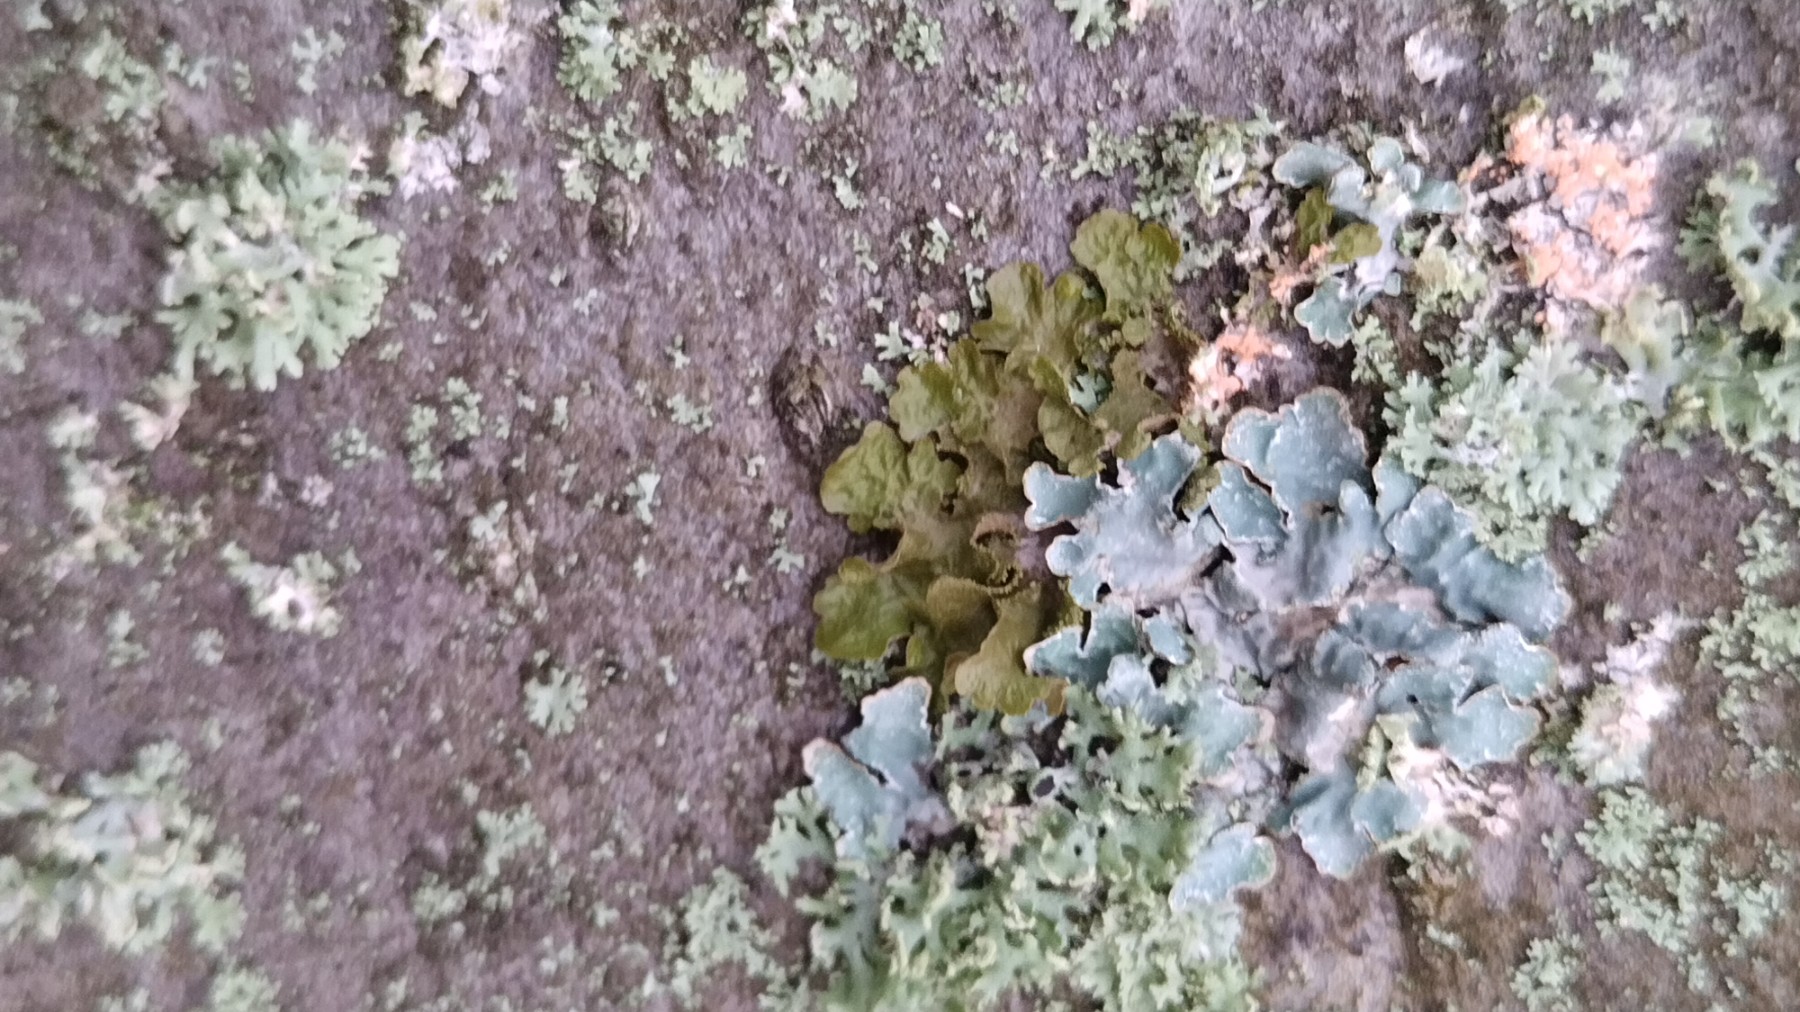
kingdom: Fungi
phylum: Ascomycota
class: Lecanoromycetes
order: Lecanorales
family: Parmeliaceae
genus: Melanelixia
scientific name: Melanelixia subaurifera
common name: guldpudret skållav
